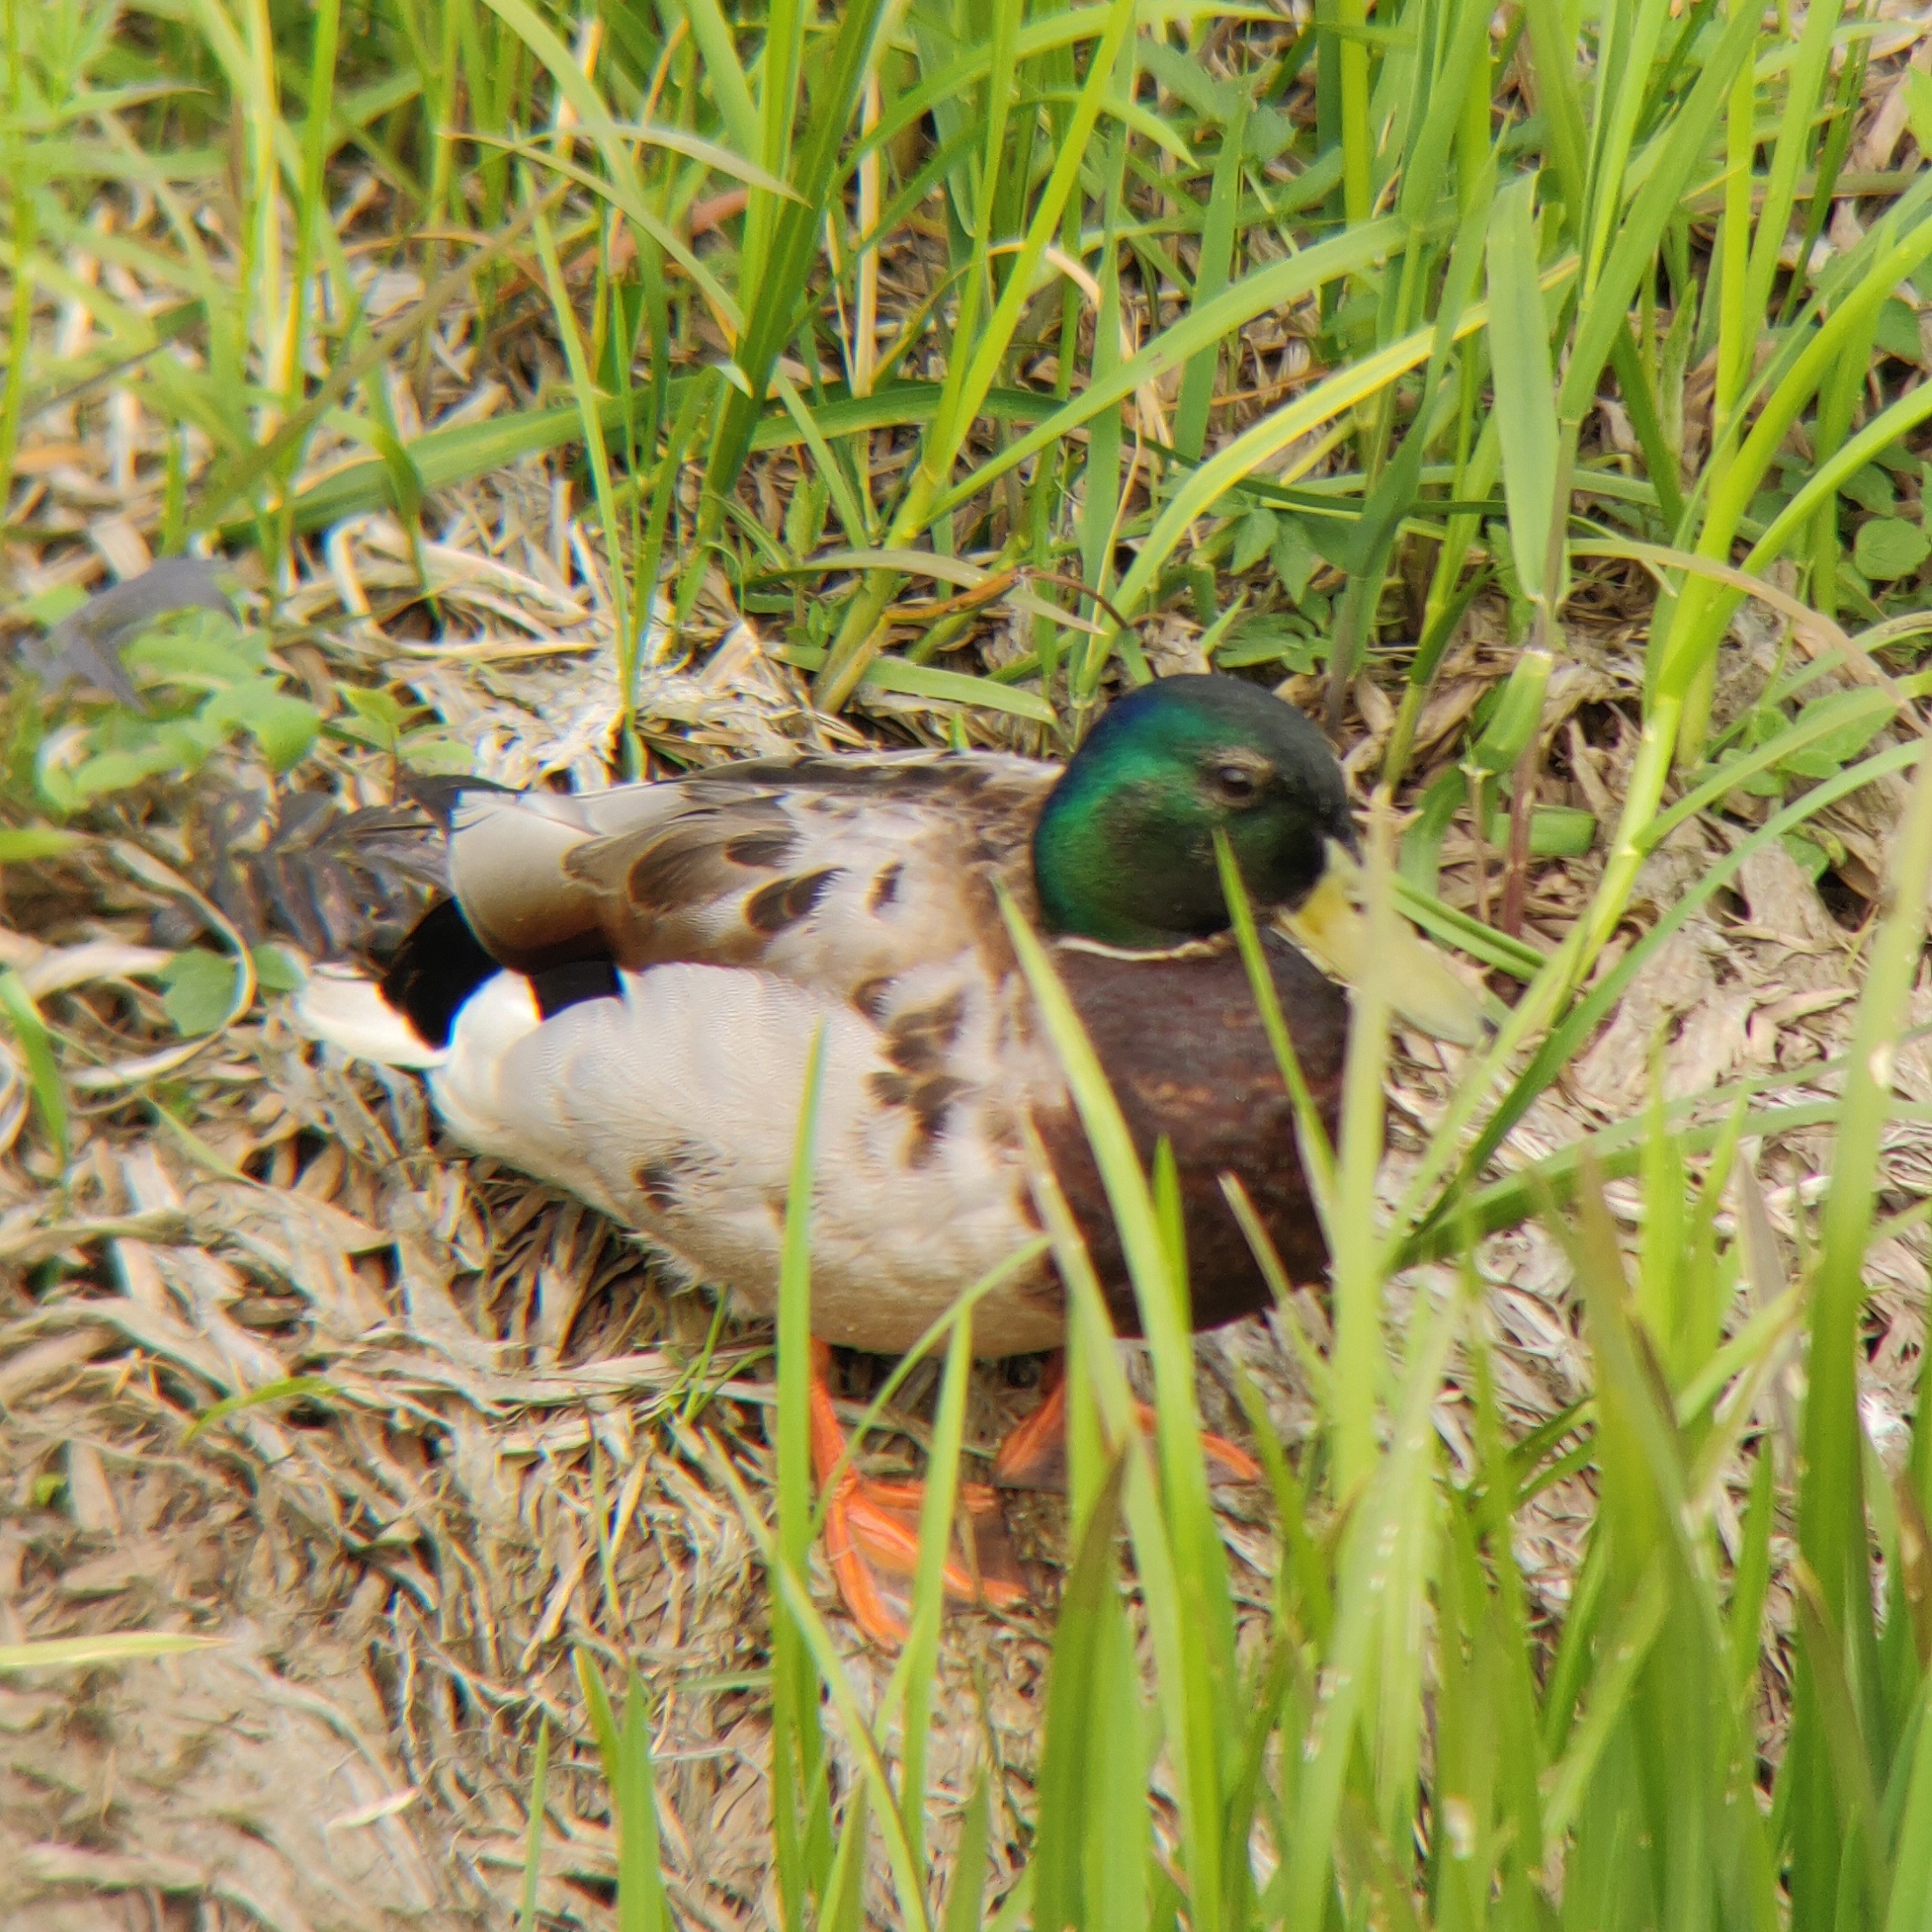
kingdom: Animalia
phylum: Chordata
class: Aves
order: Anseriformes
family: Anatidae
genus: Anas
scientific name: Anas platyrhynchos
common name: Gråand
